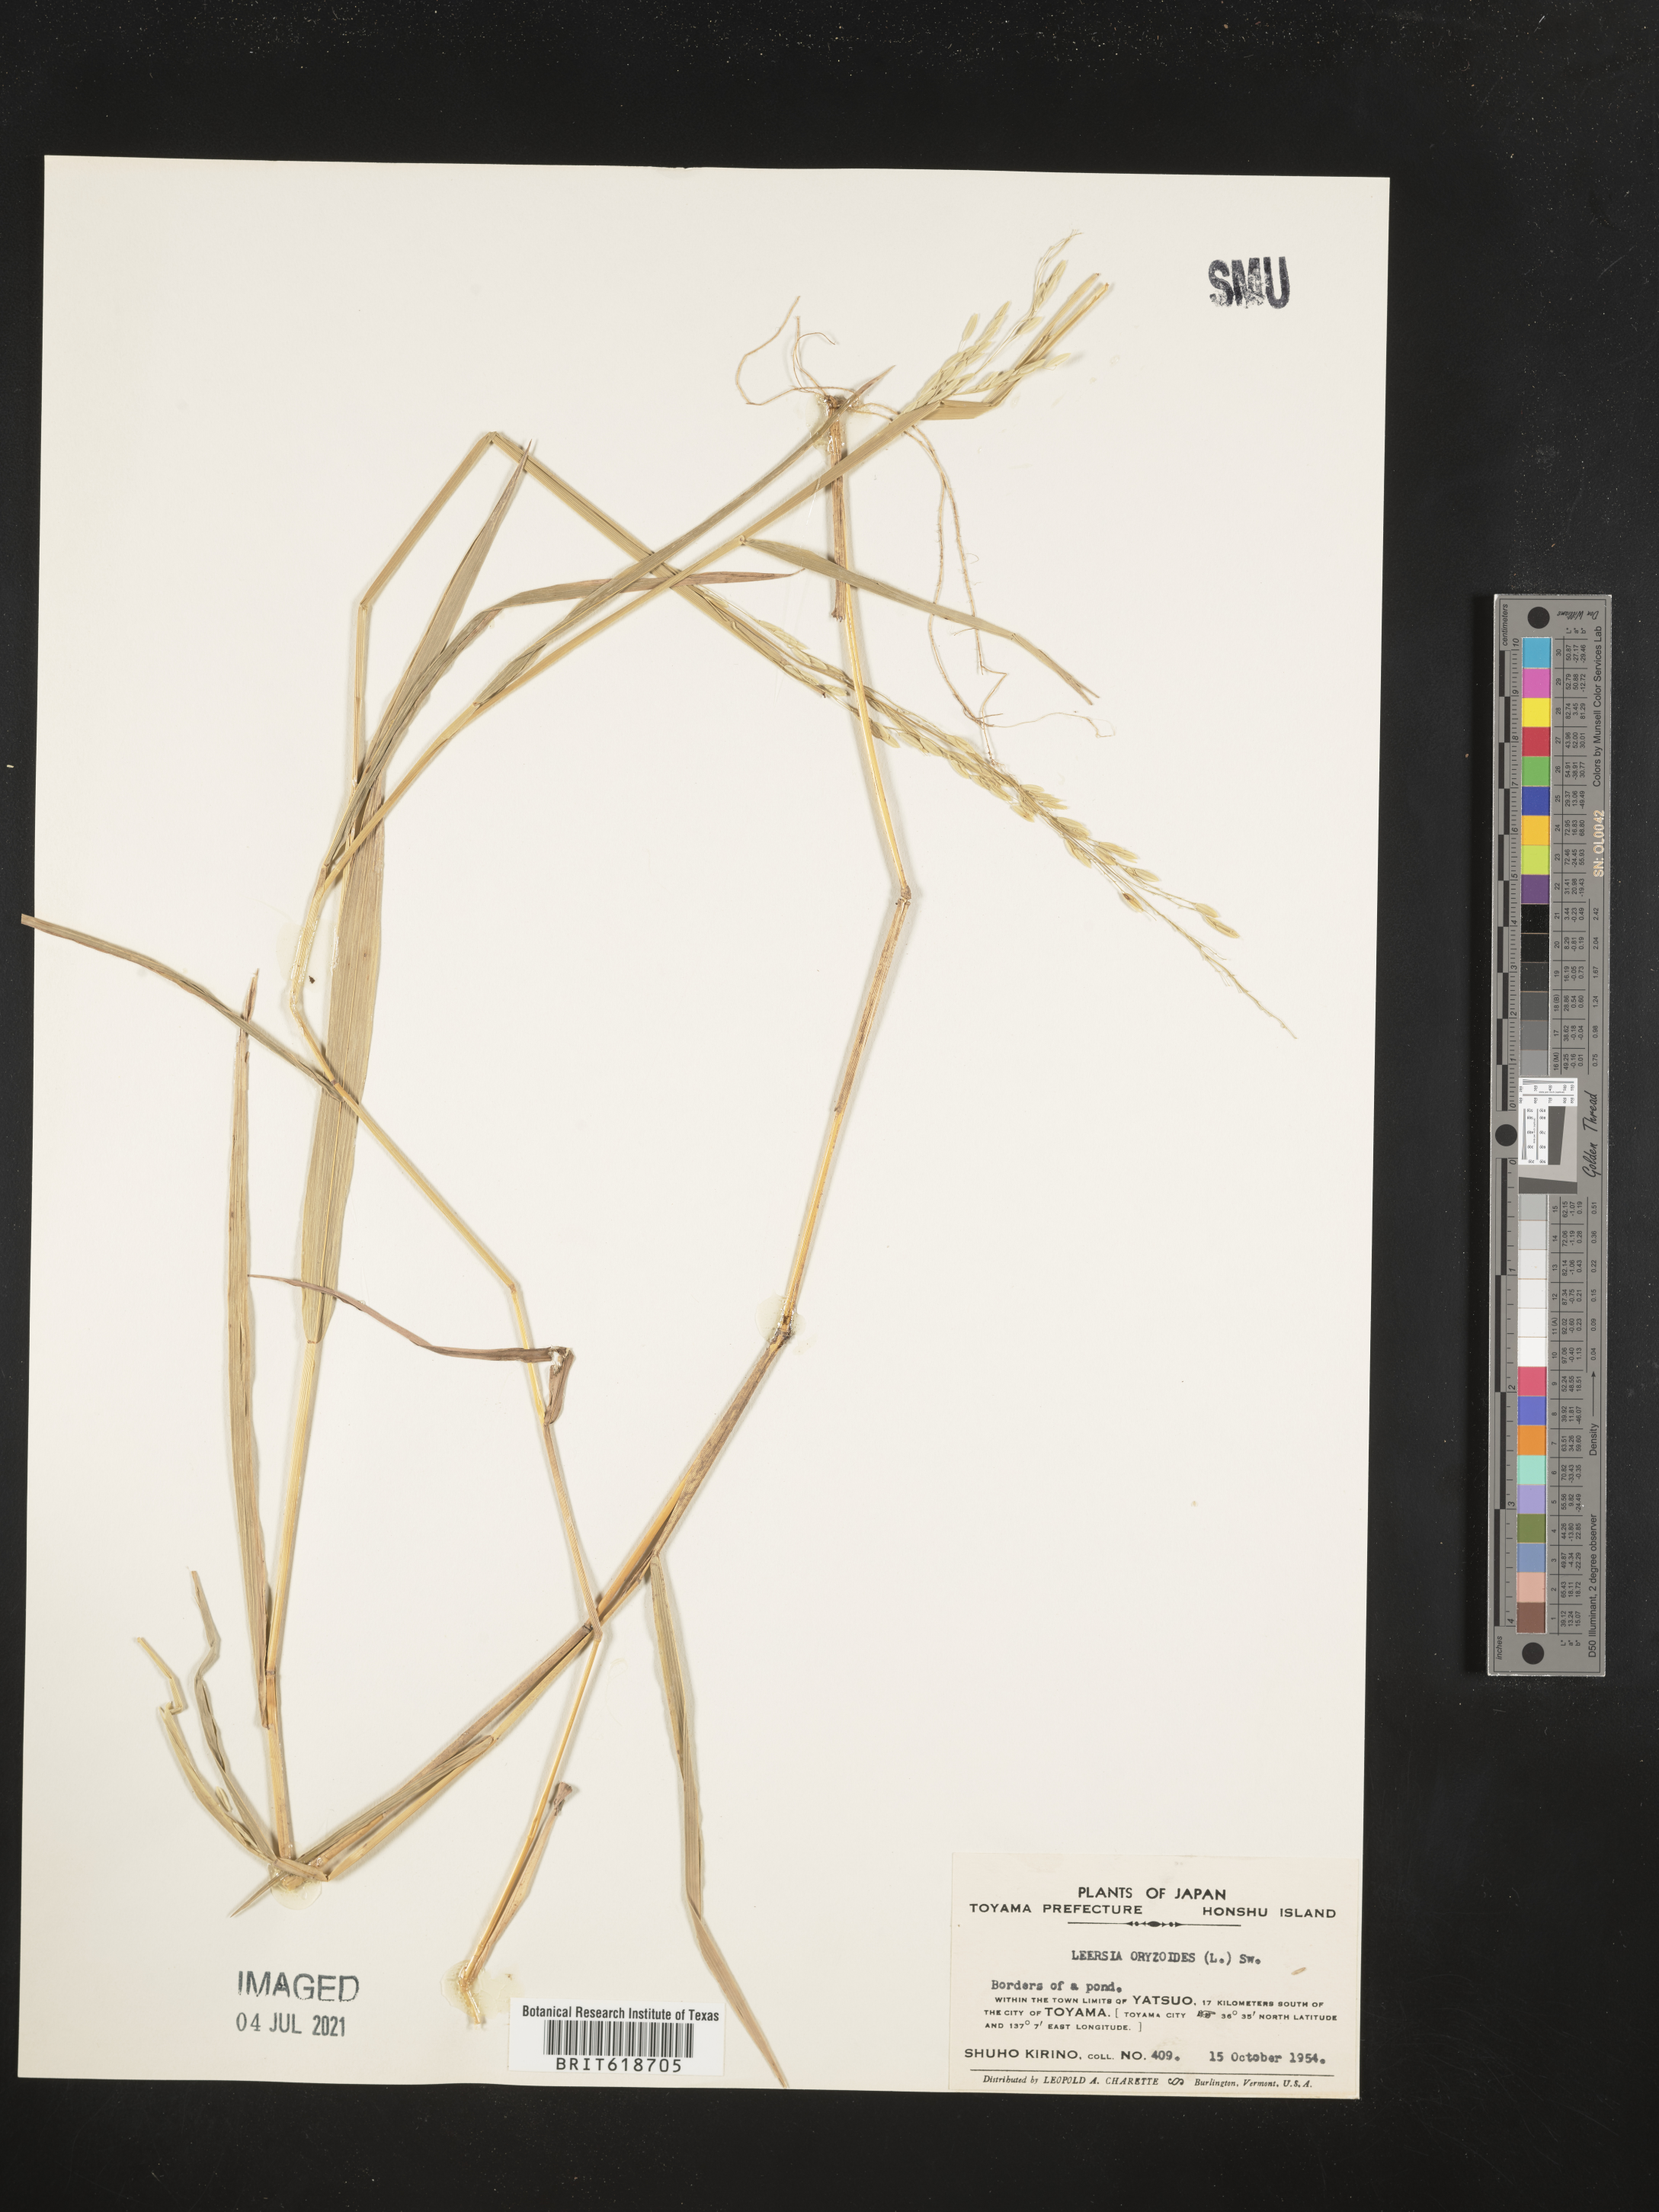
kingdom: Plantae
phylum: Tracheophyta
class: Liliopsida
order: Poales
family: Poaceae
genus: Leersia
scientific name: Leersia oryzoides
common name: Cut-grass
